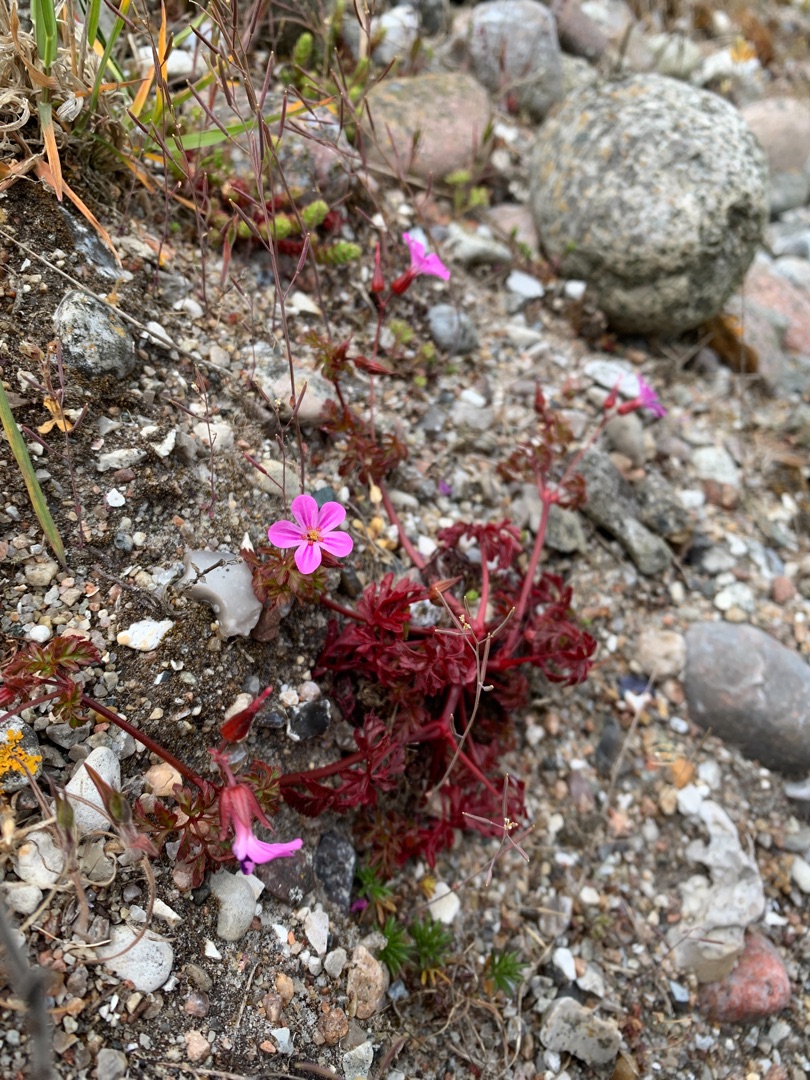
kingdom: Plantae
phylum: Tracheophyta
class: Magnoliopsida
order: Geraniales
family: Geraniaceae
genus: Geranium
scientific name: Geranium purpureum
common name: Strand-storkenæb
